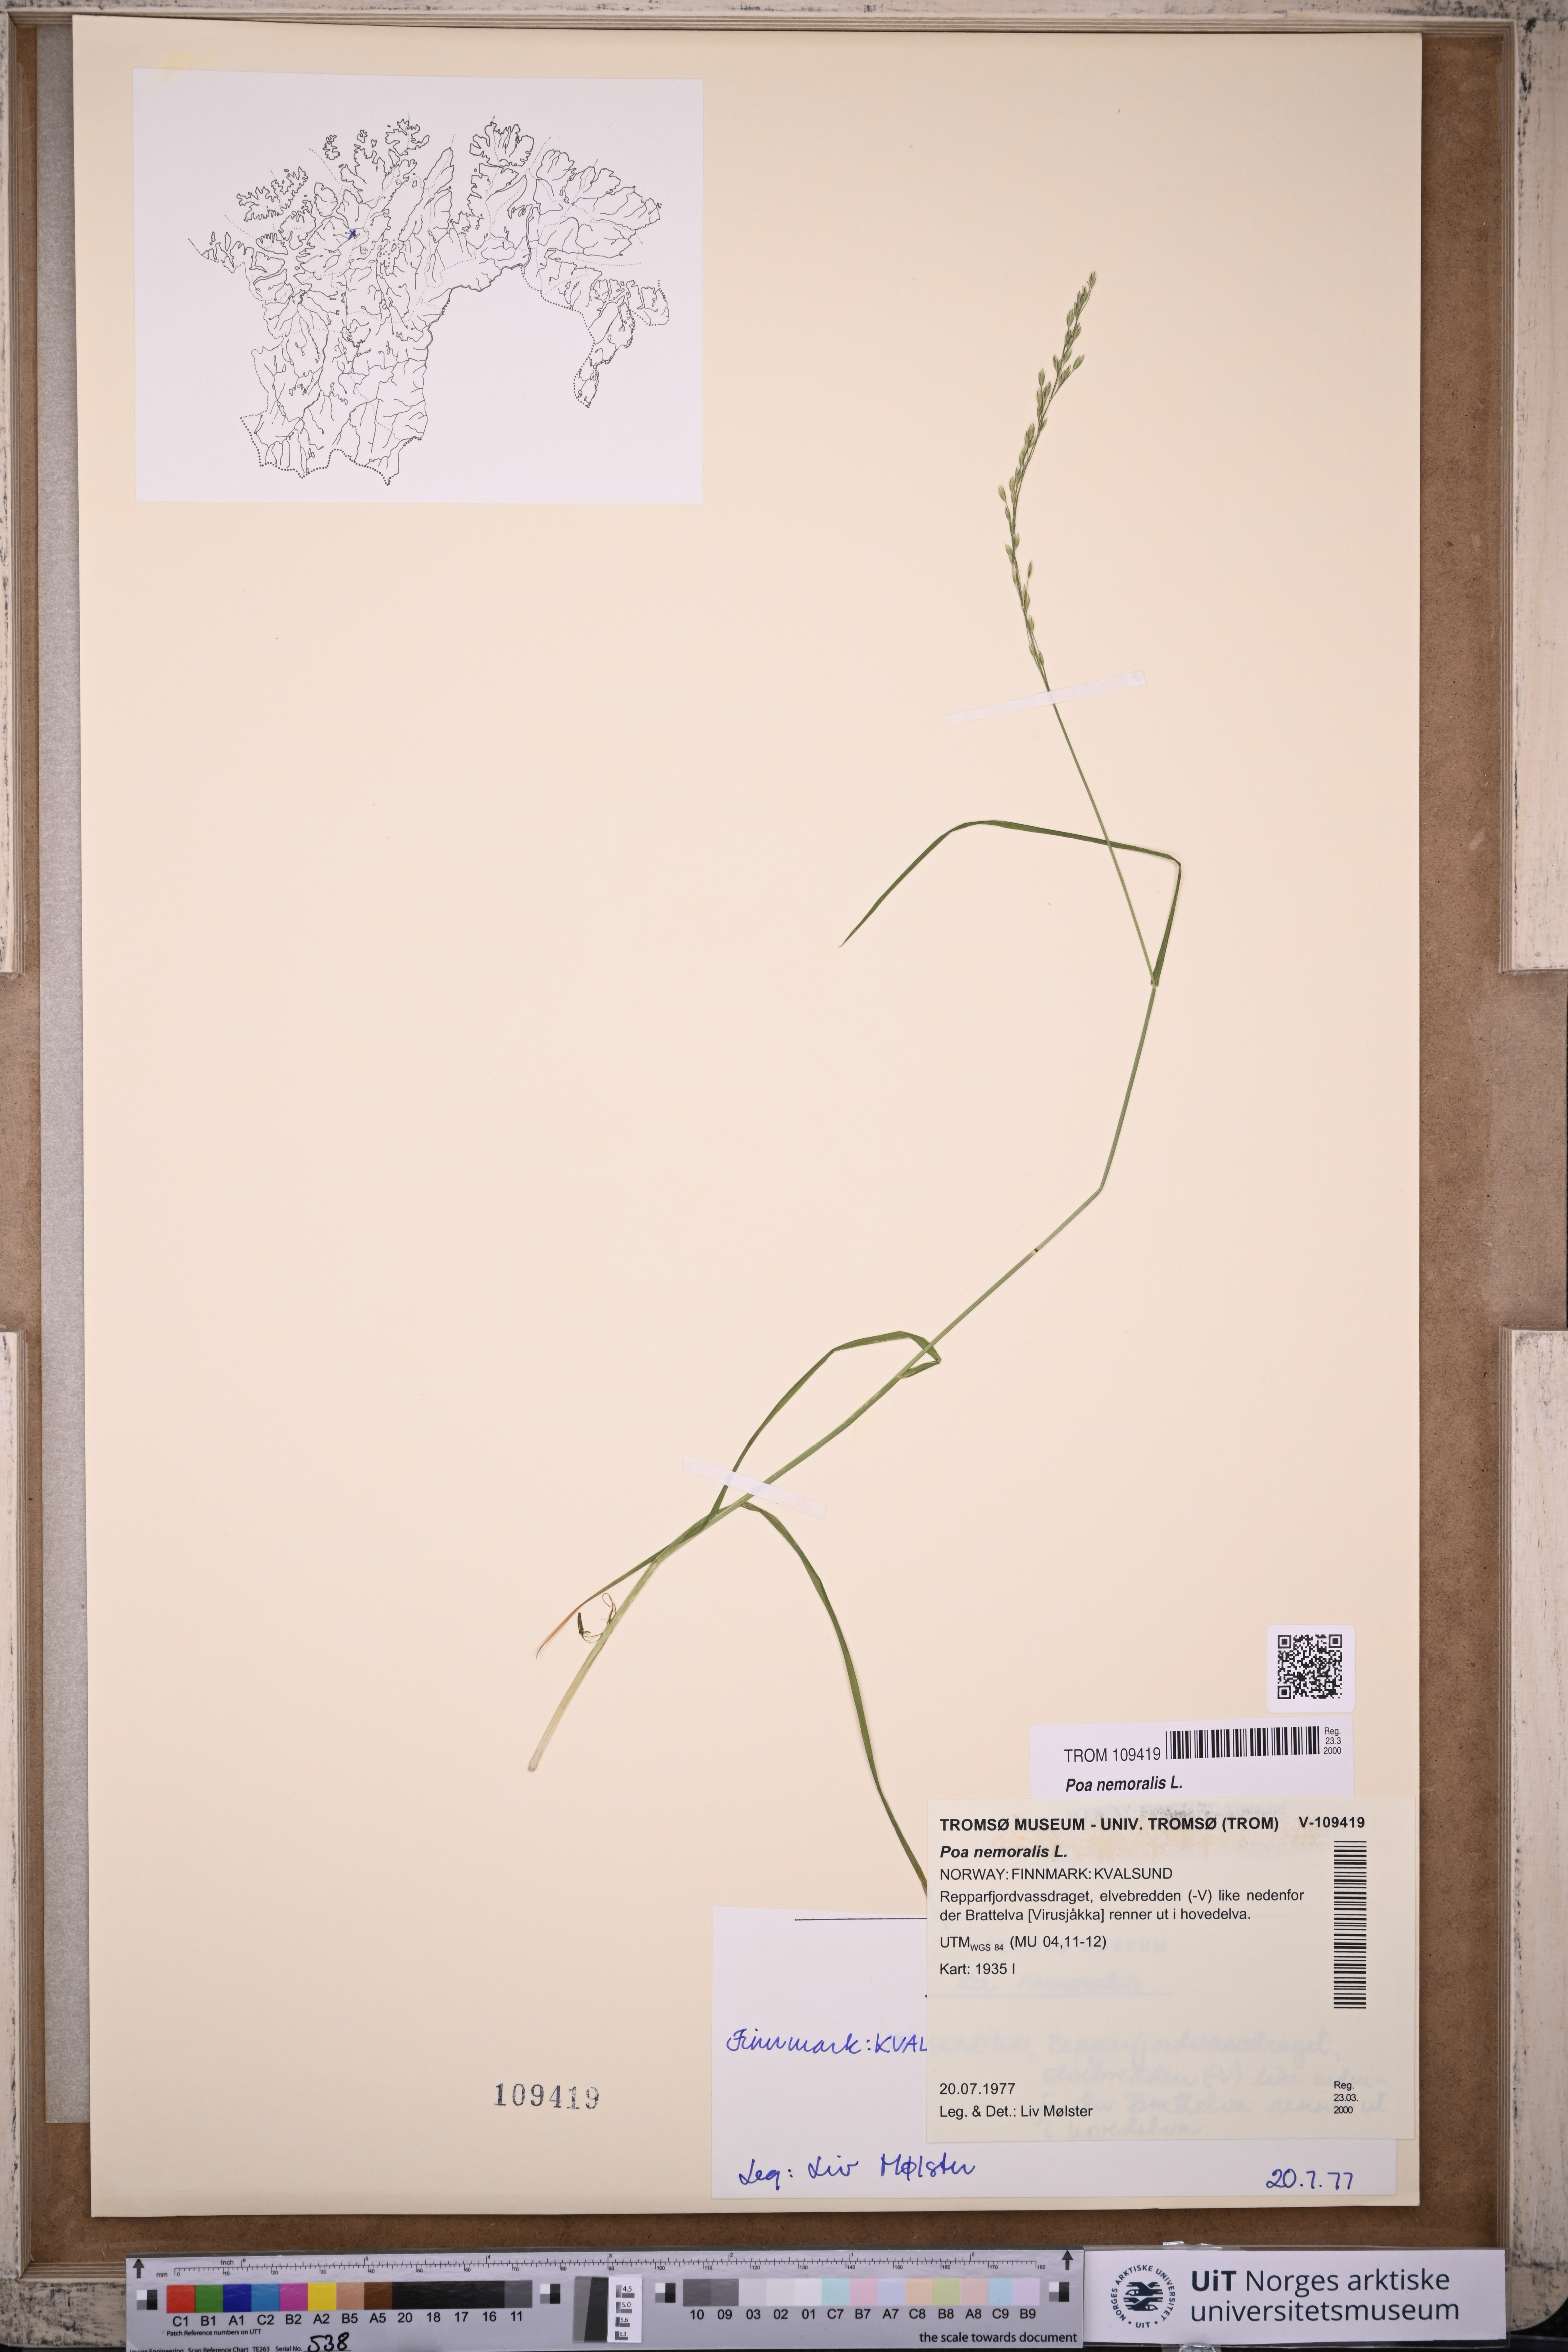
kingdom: Plantae
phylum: Tracheophyta
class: Liliopsida
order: Poales
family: Poaceae
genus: Poa
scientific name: Poa nemoralis
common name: Wood bluegrass
